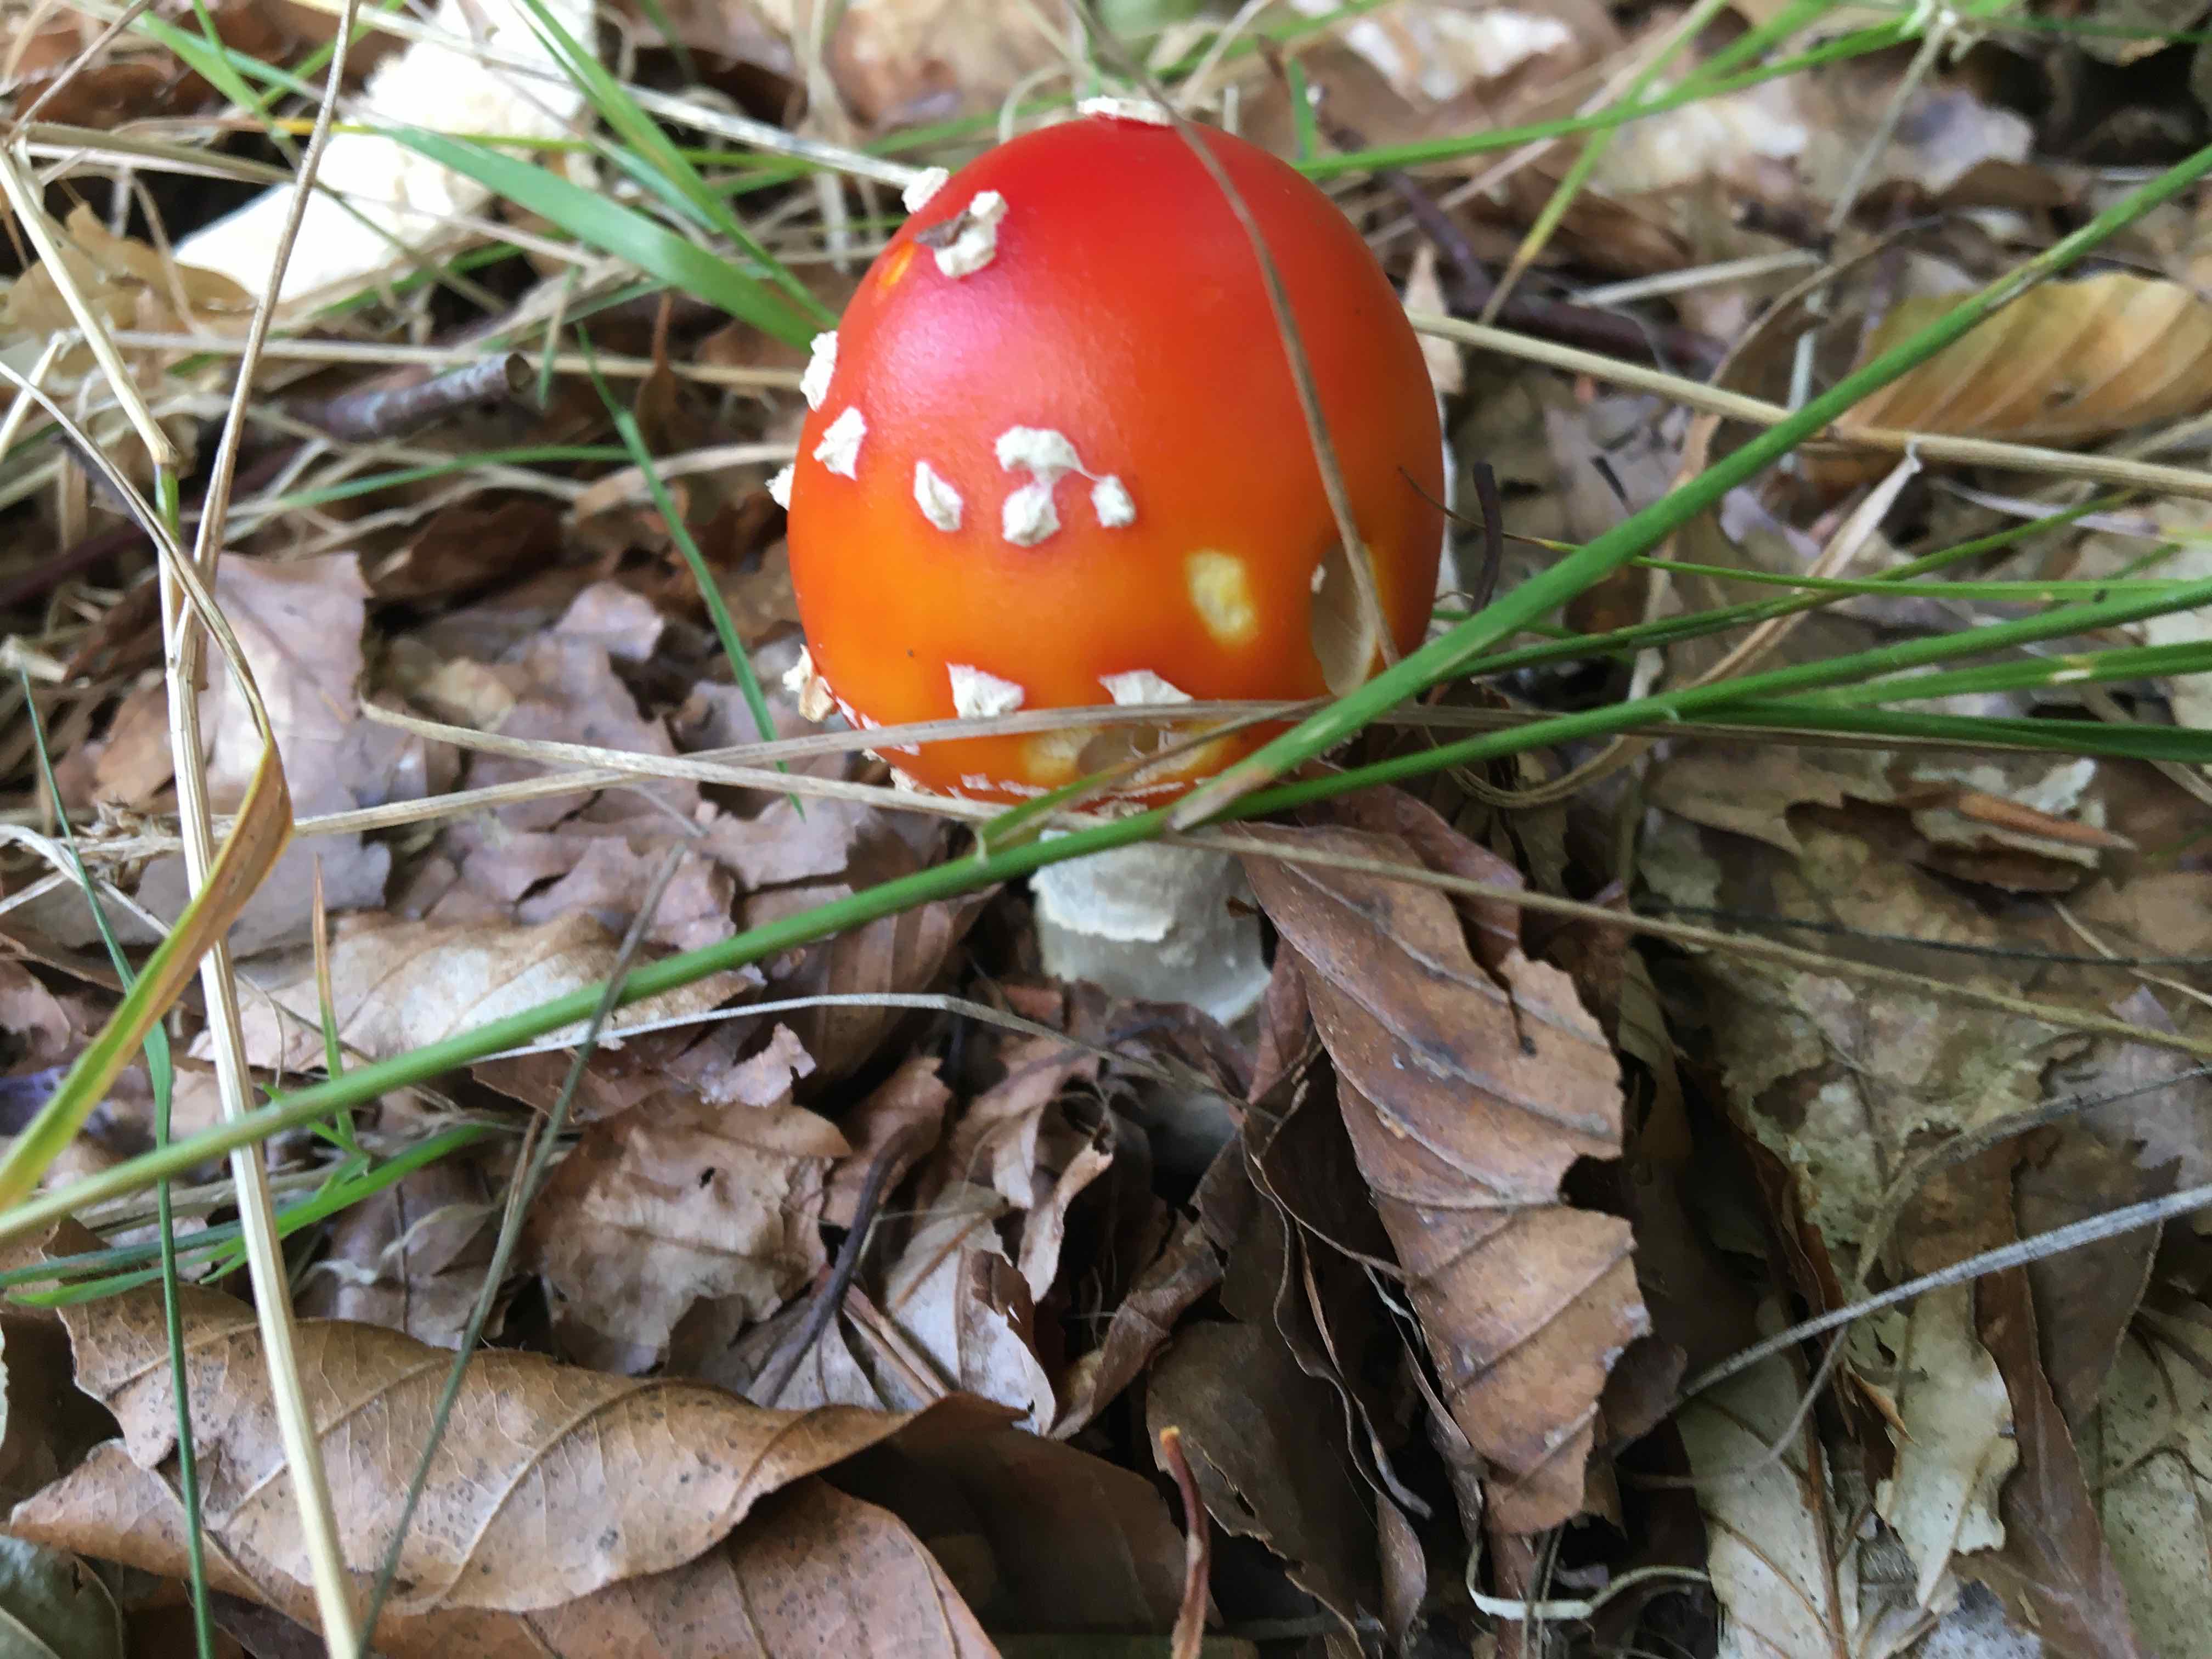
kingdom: Fungi
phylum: Basidiomycota
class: Agaricomycetes
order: Agaricales
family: Amanitaceae
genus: Amanita
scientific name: Amanita muscaria
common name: rød fluesvamp
